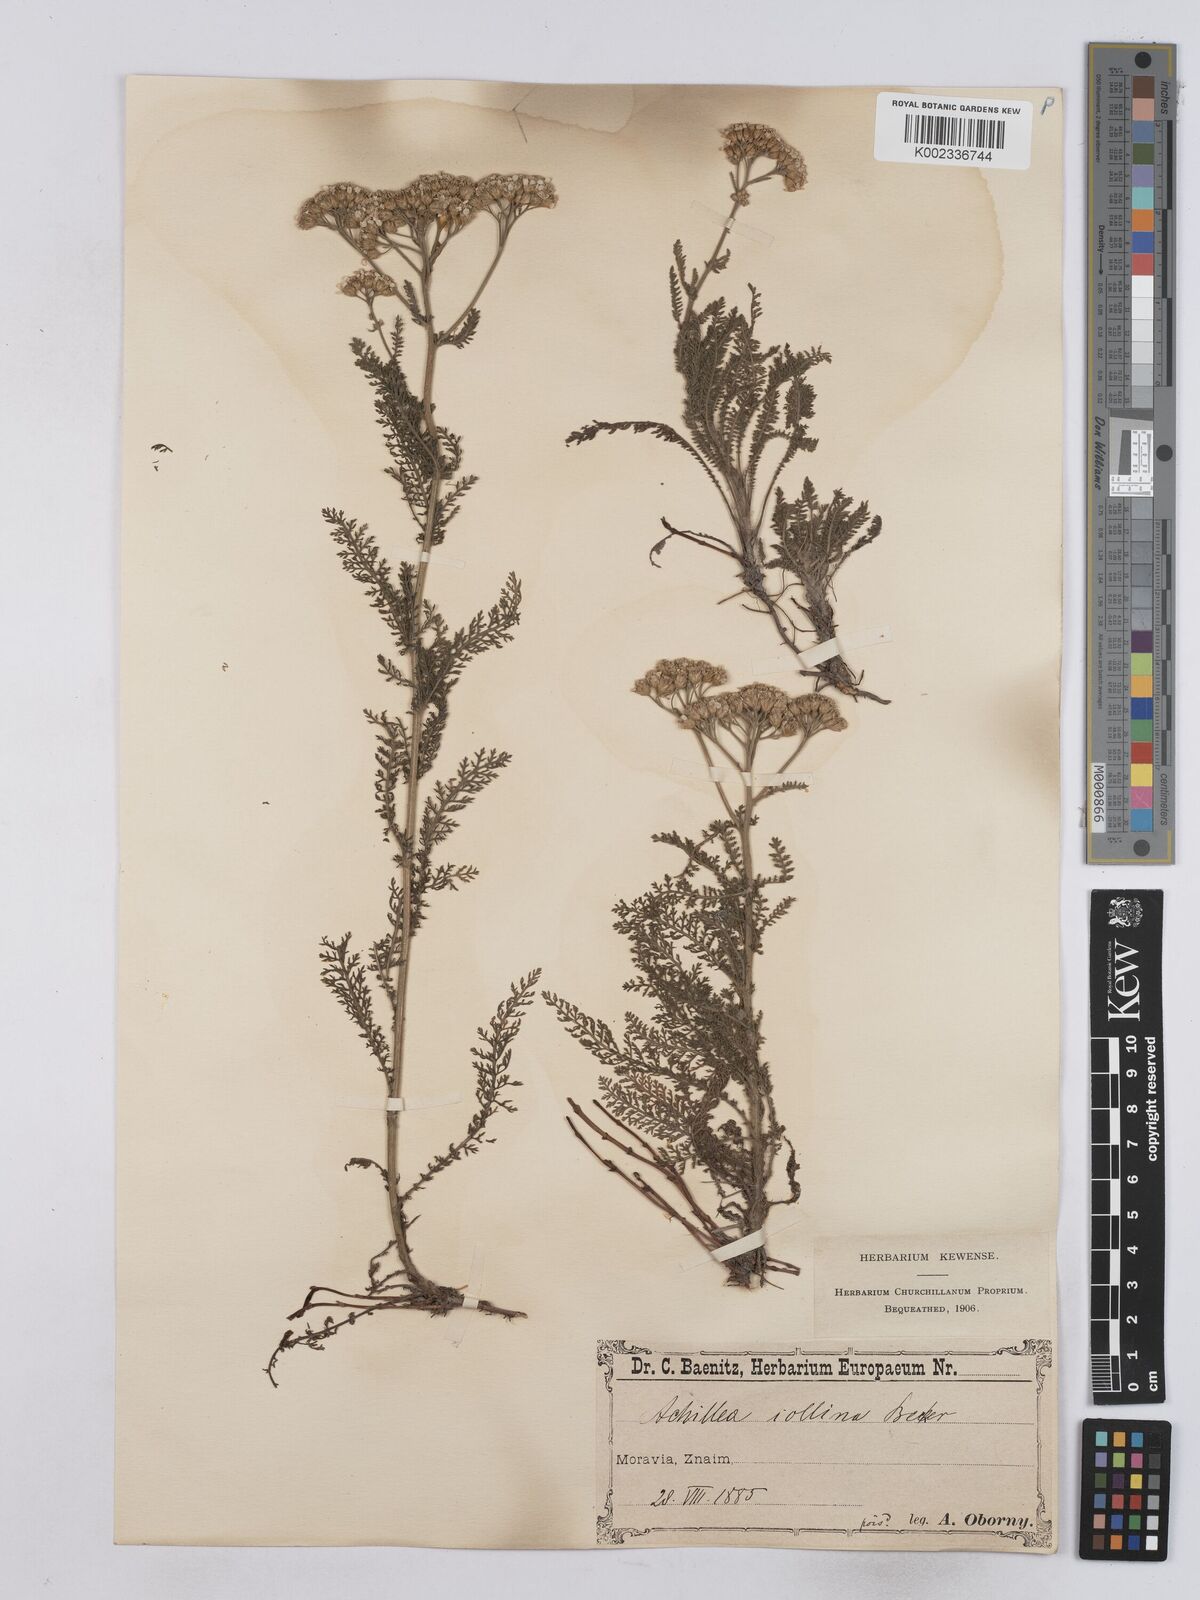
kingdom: Plantae
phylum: Tracheophyta
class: Magnoliopsida
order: Asterales
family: Asteraceae
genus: Achillea
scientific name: Achillea collina
